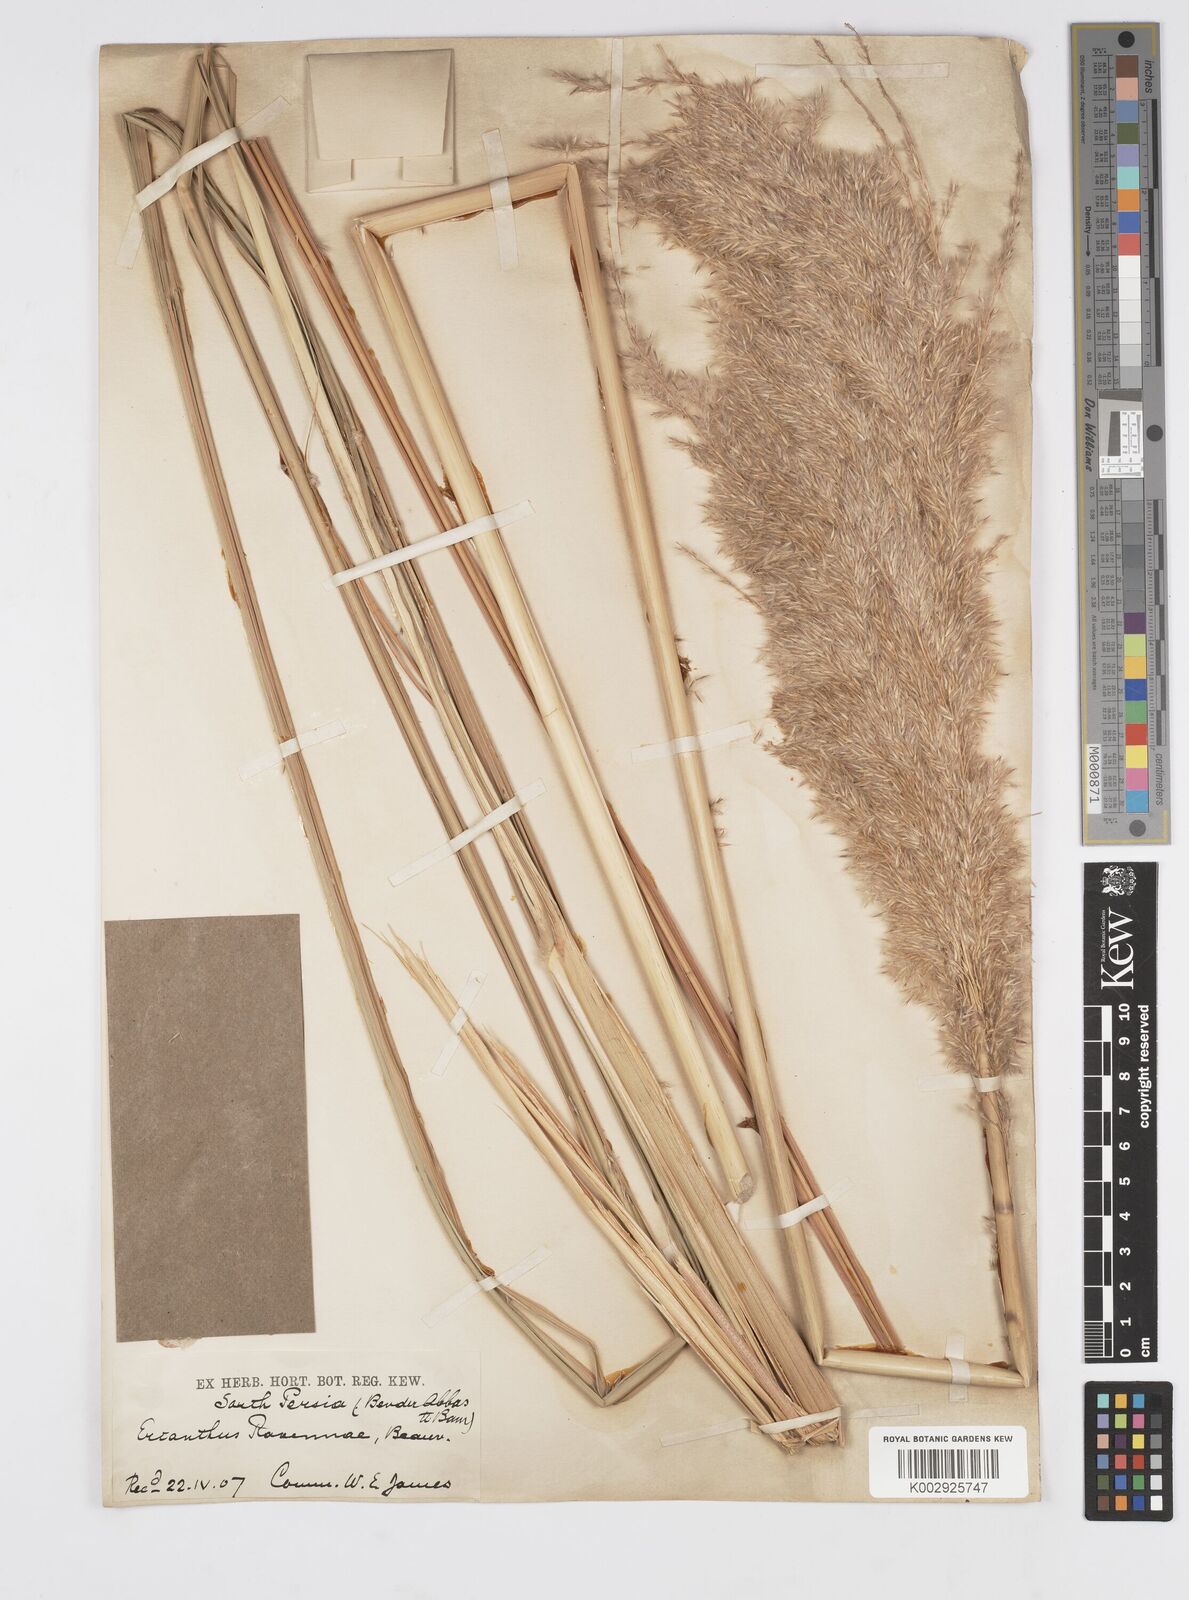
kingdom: Plantae
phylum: Tracheophyta
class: Liliopsida
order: Poales
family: Poaceae
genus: Tripidium
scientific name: Tripidium ravennae
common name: Ravenna grass
